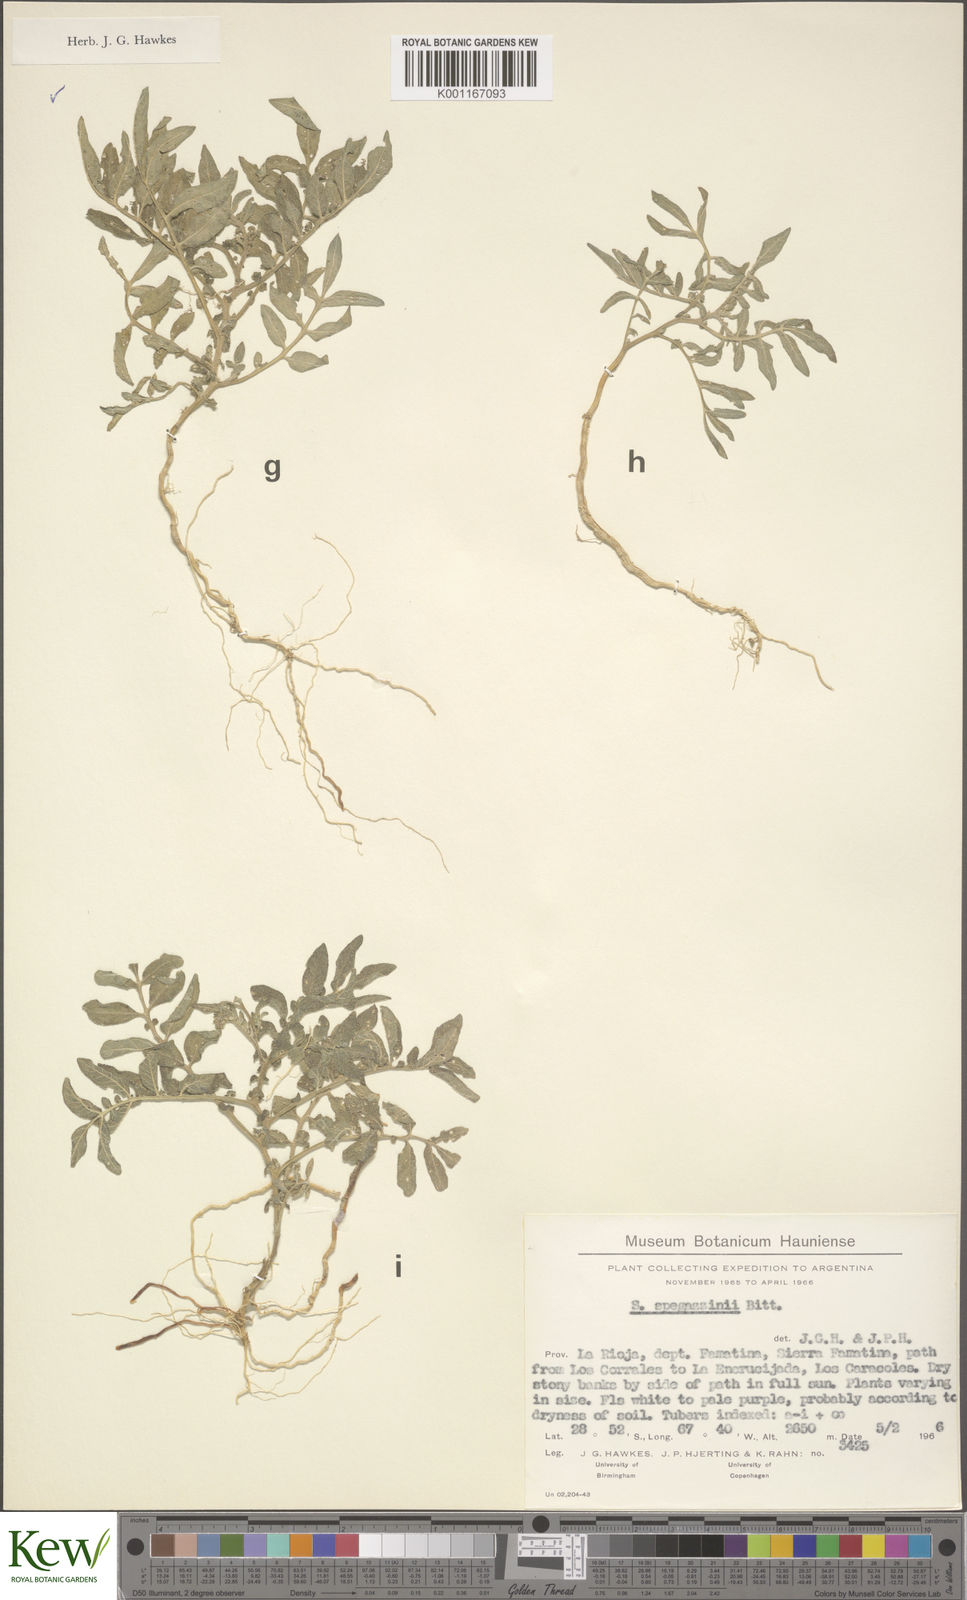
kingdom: Plantae
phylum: Tracheophyta
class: Magnoliopsida
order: Solanales
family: Solanaceae
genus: Solanum
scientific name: Solanum brevicaule
